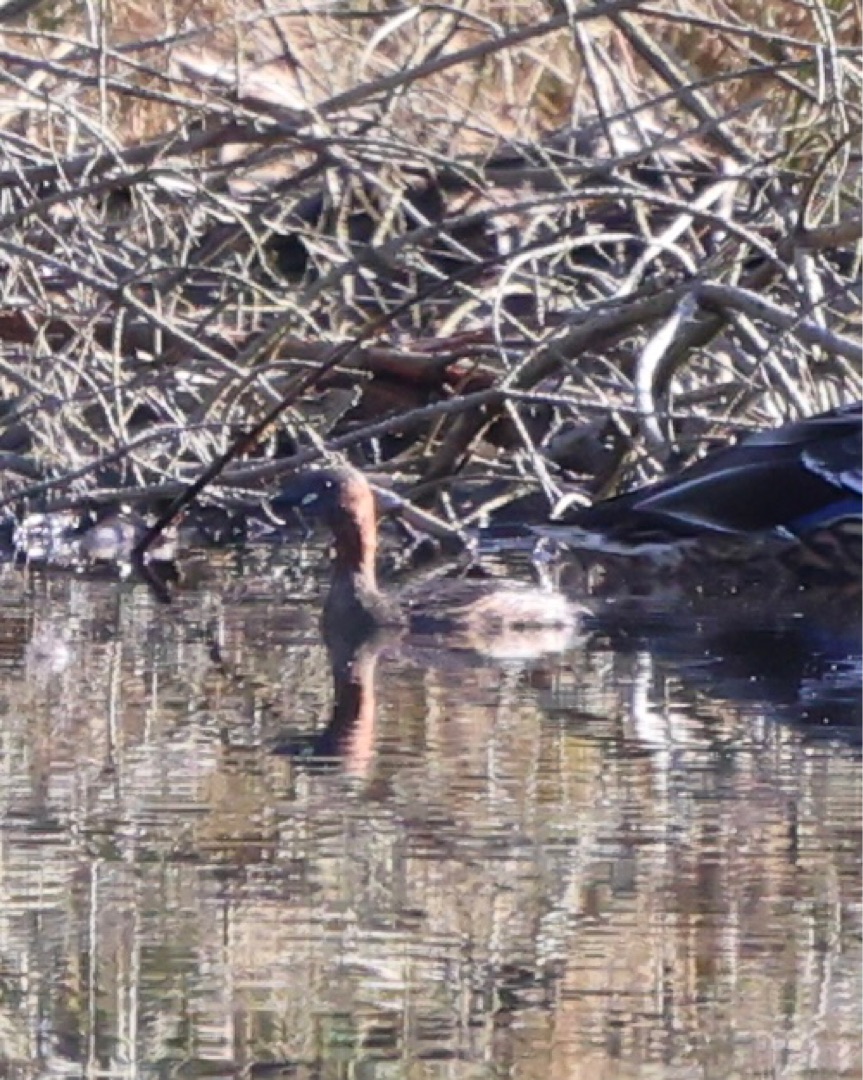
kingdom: Animalia
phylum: Chordata
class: Aves
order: Podicipediformes
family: Podicipedidae
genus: Tachybaptus
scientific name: Tachybaptus ruficollis
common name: Lille lappedykker
